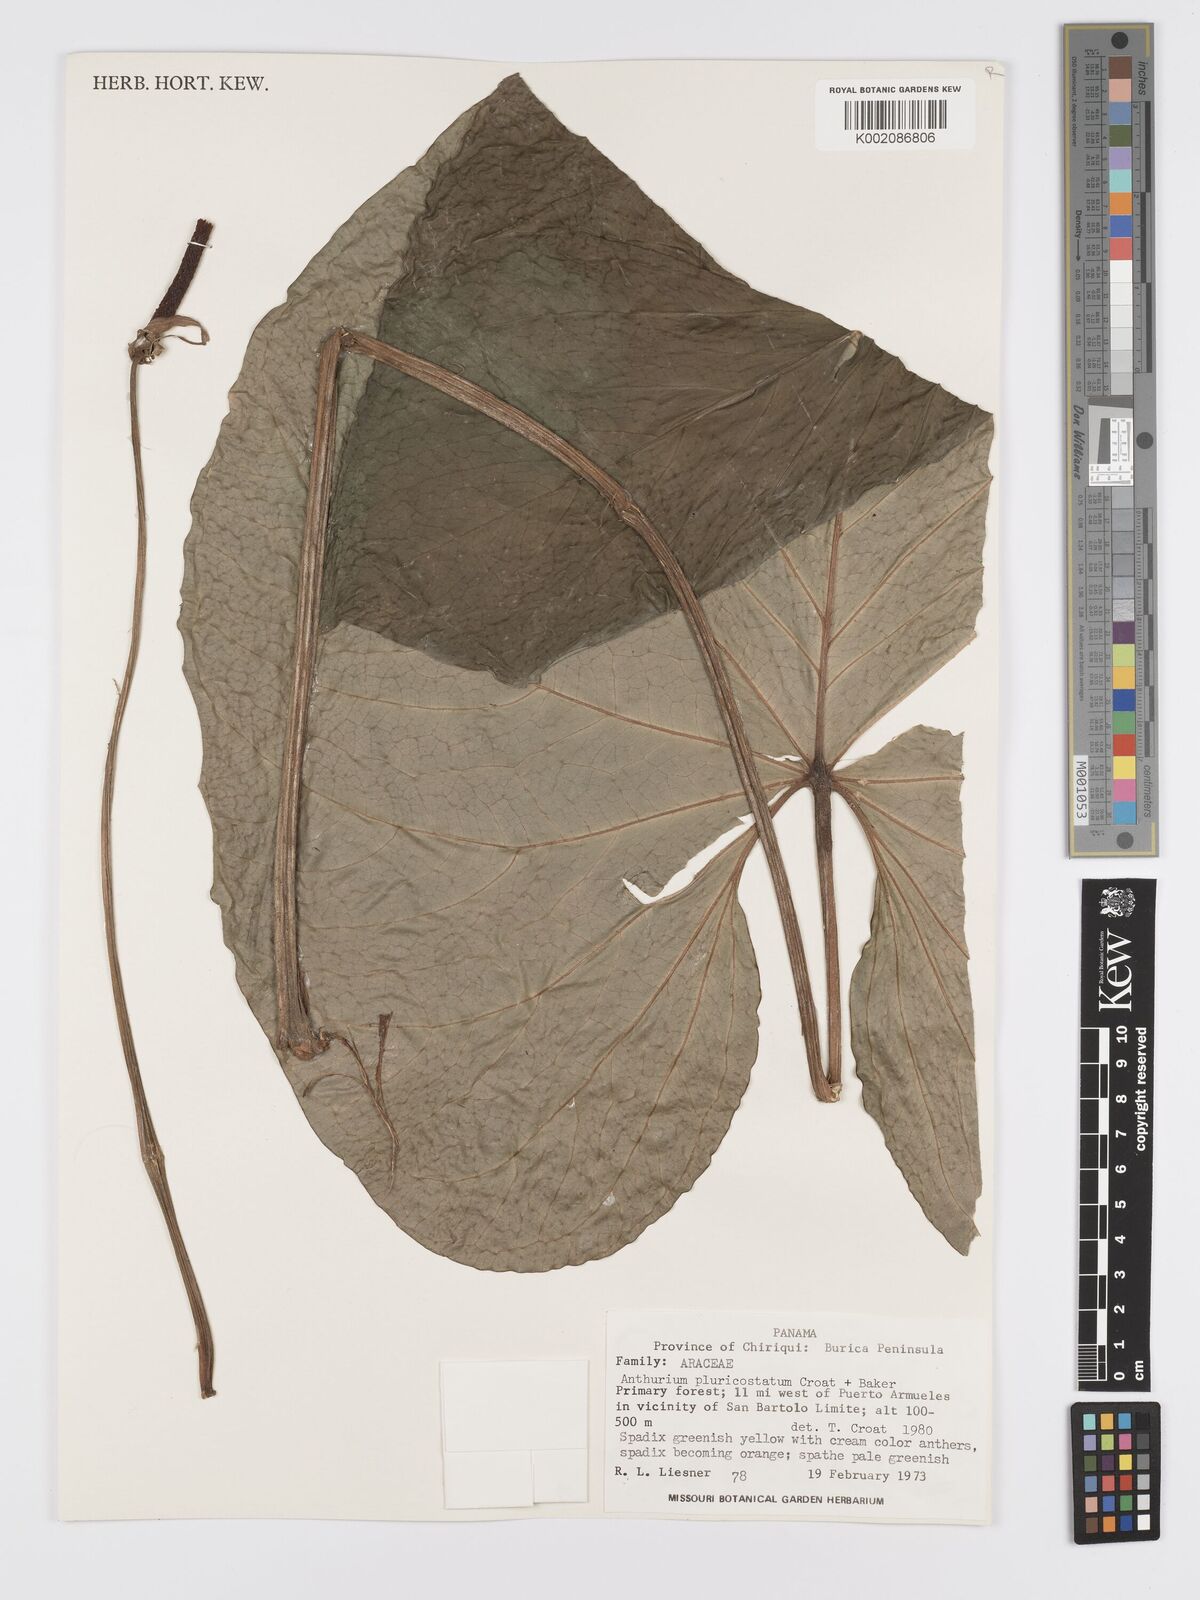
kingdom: Plantae
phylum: Tracheophyta
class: Liliopsida
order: Alismatales
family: Araceae
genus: Anthurium
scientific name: Anthurium ochranthum
